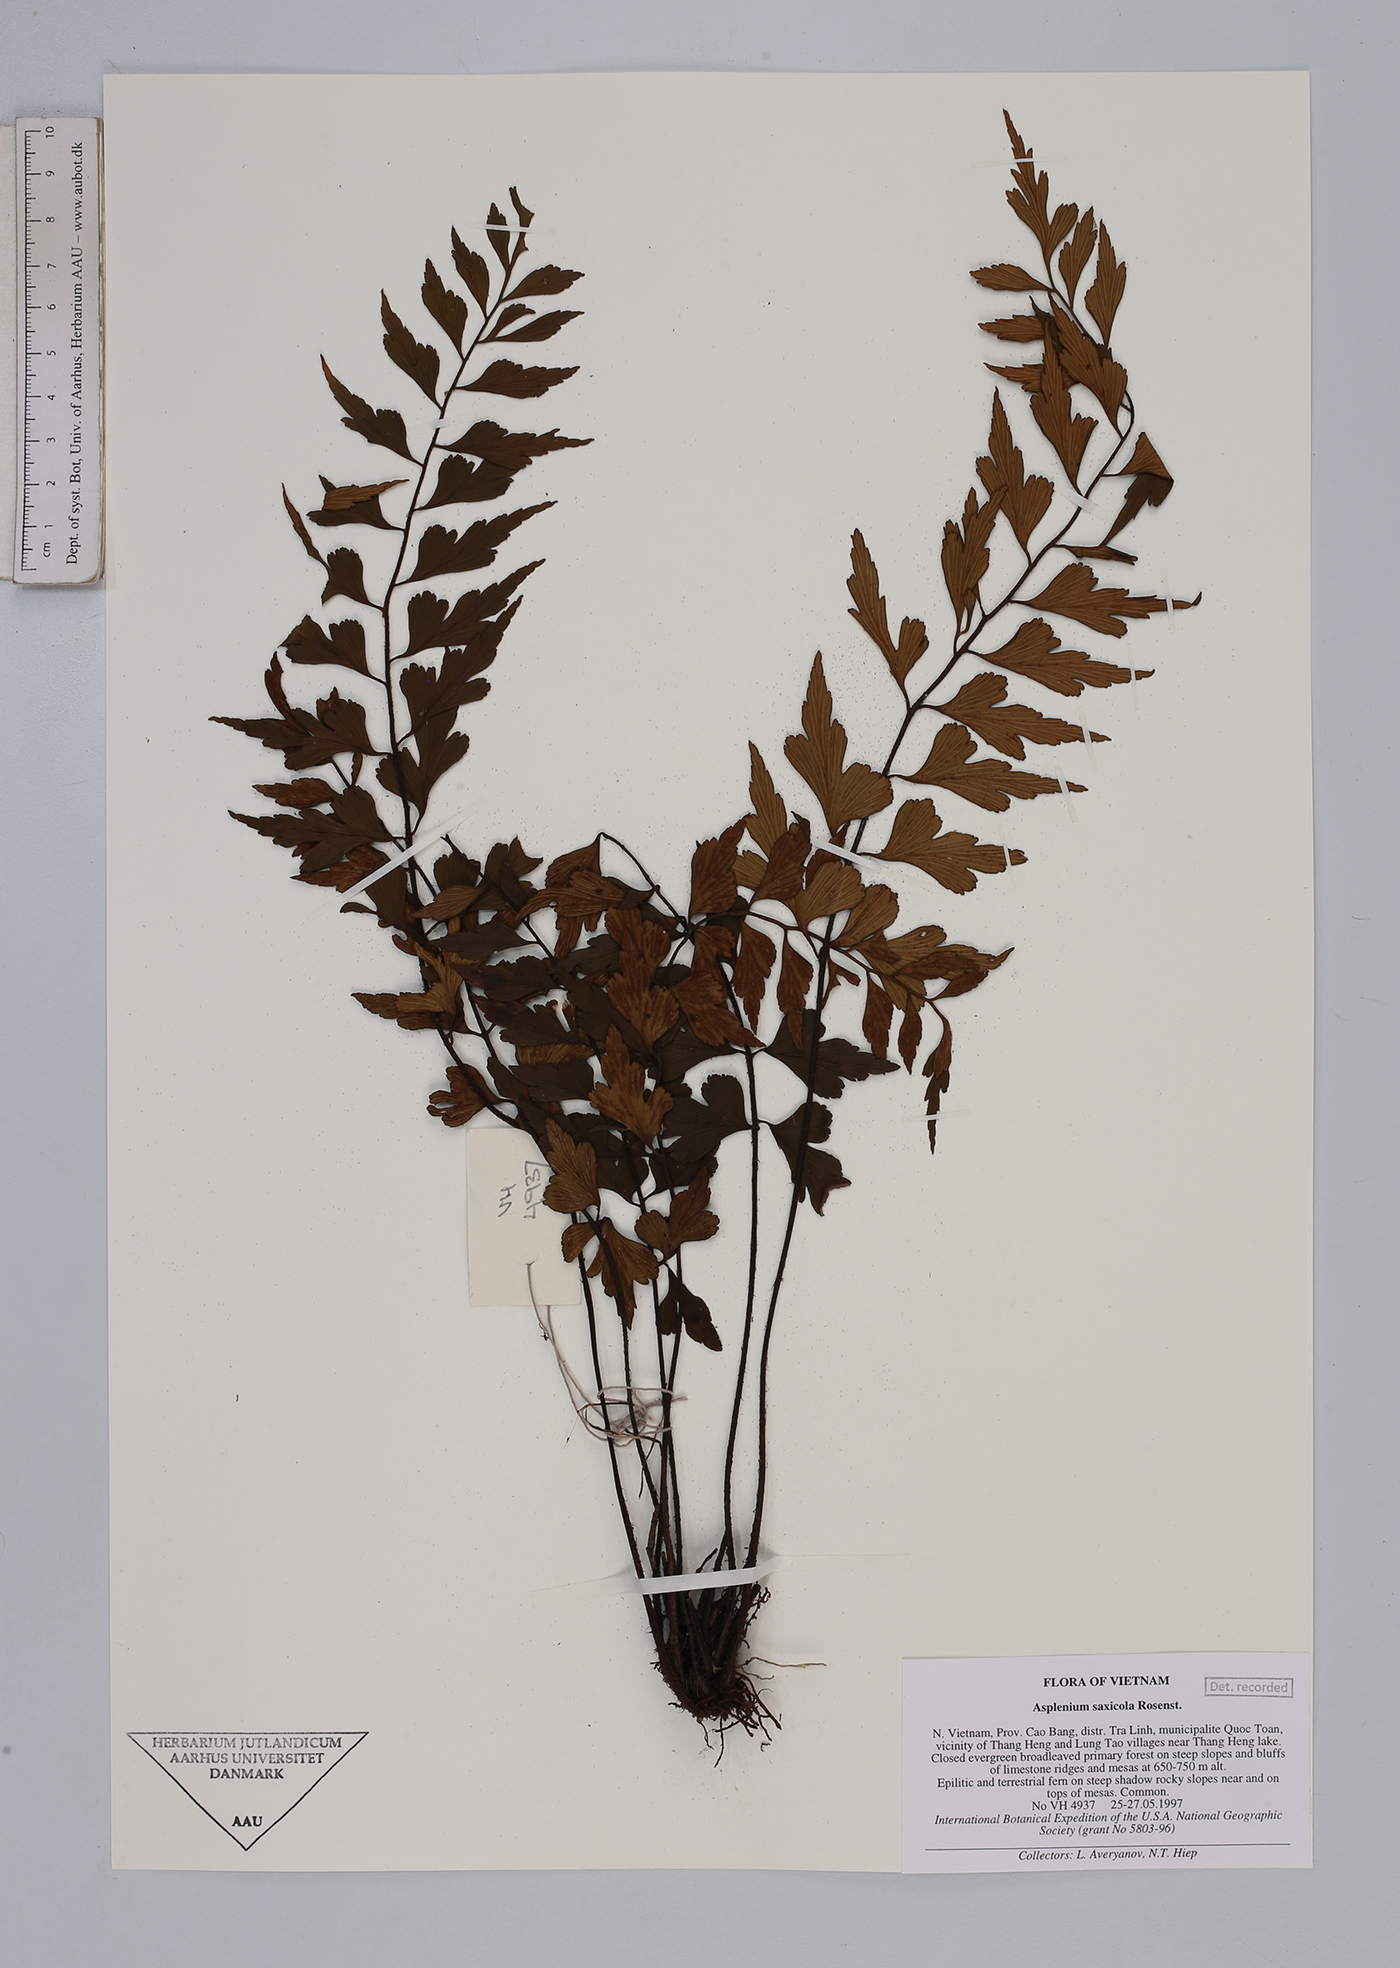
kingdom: Plantae
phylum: Tracheophyta
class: Polypodiopsida
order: Polypodiales
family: Aspleniaceae
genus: Asplenium
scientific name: Asplenium saxicola
